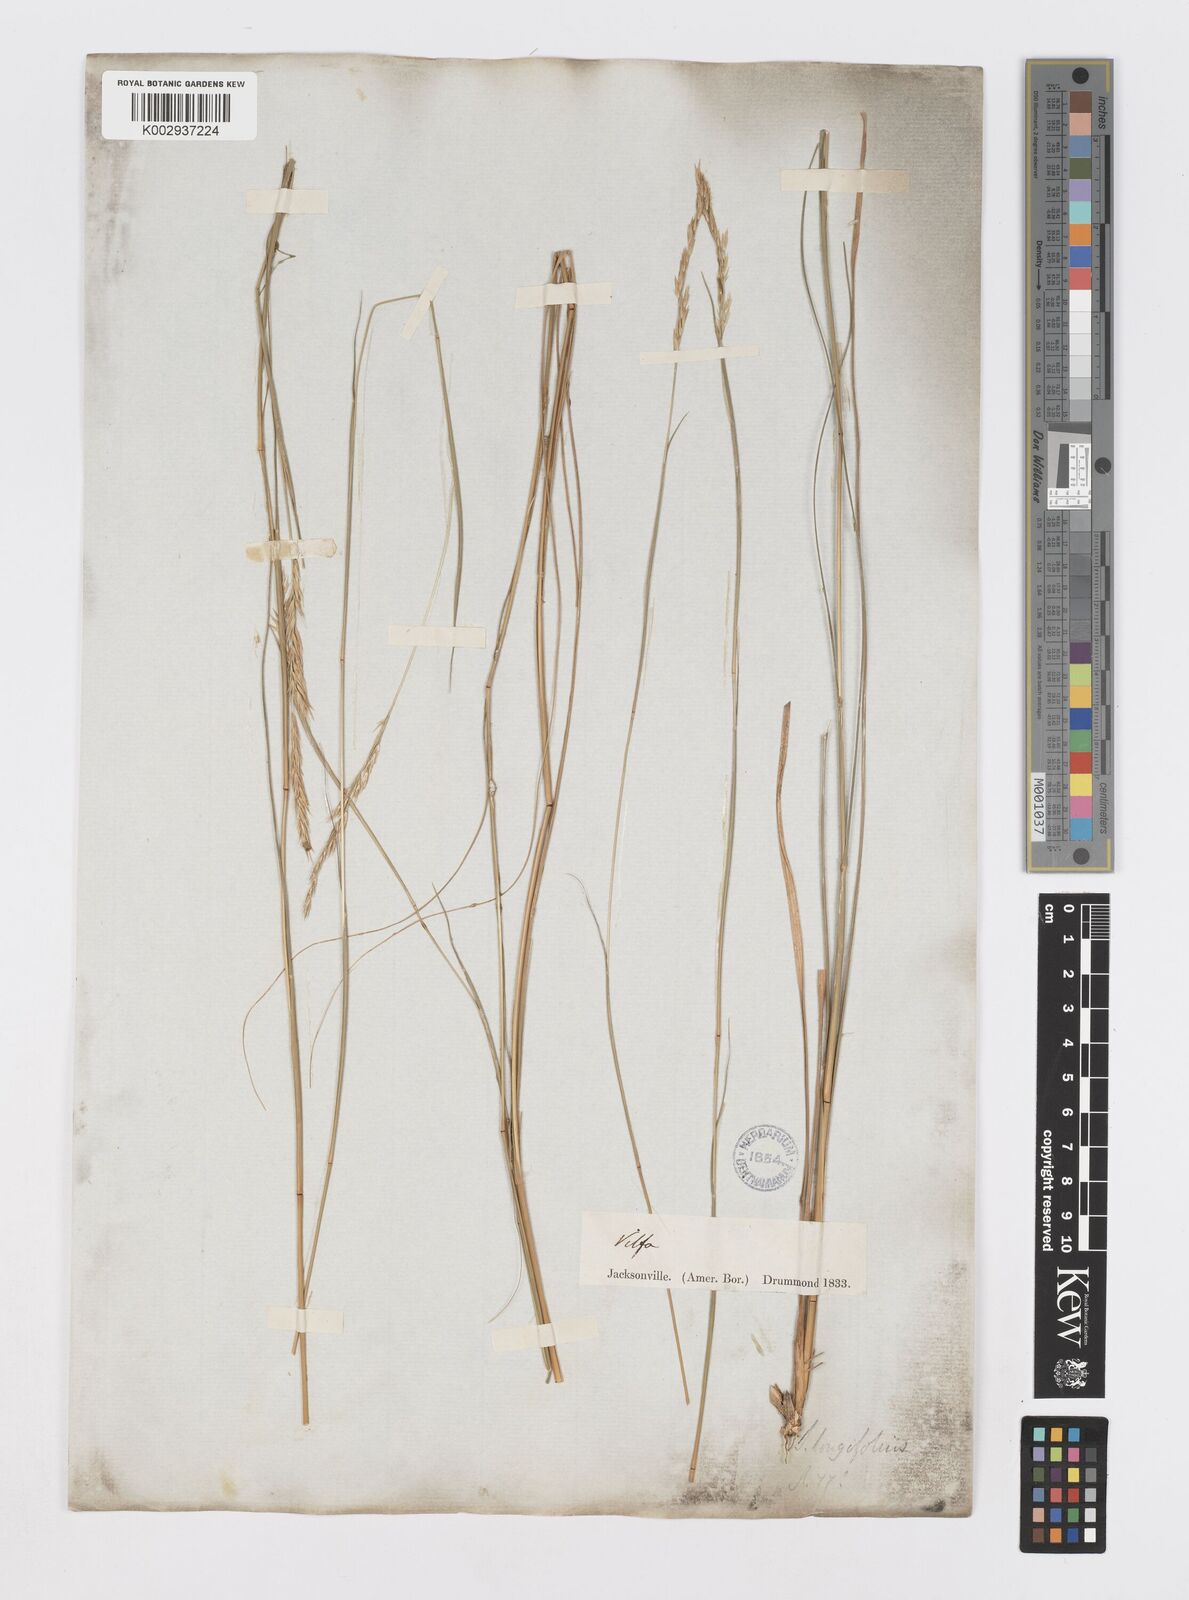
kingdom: Plantae
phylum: Tracheophyta
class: Liliopsida
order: Poales
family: Poaceae
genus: Sporobolus
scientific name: Sporobolus clandestinus
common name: Hidden dropseed
